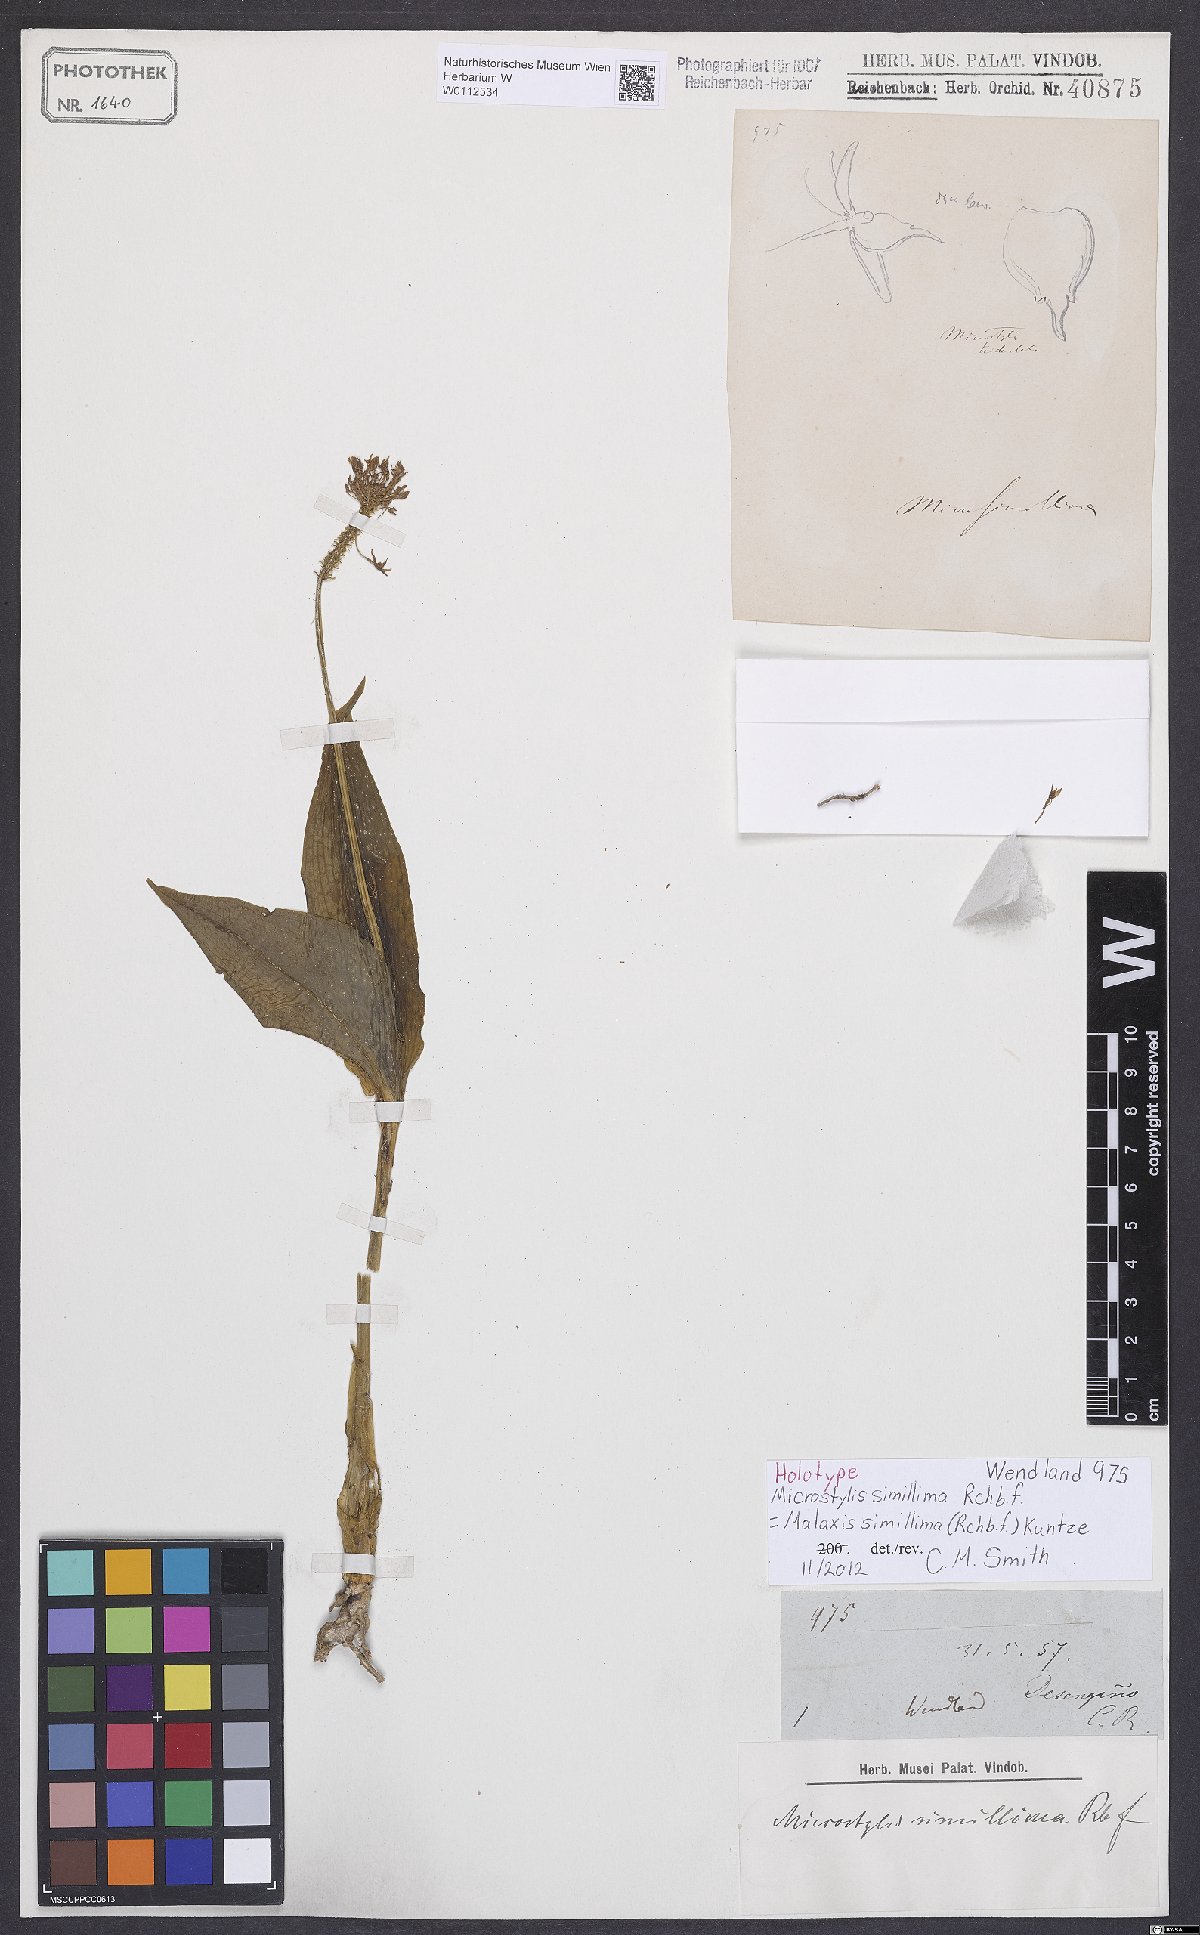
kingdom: Plantae
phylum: Tracheophyta
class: Liliopsida
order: Asparagales
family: Orchidaceae
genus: Malaxis
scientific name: Malaxis simillima
